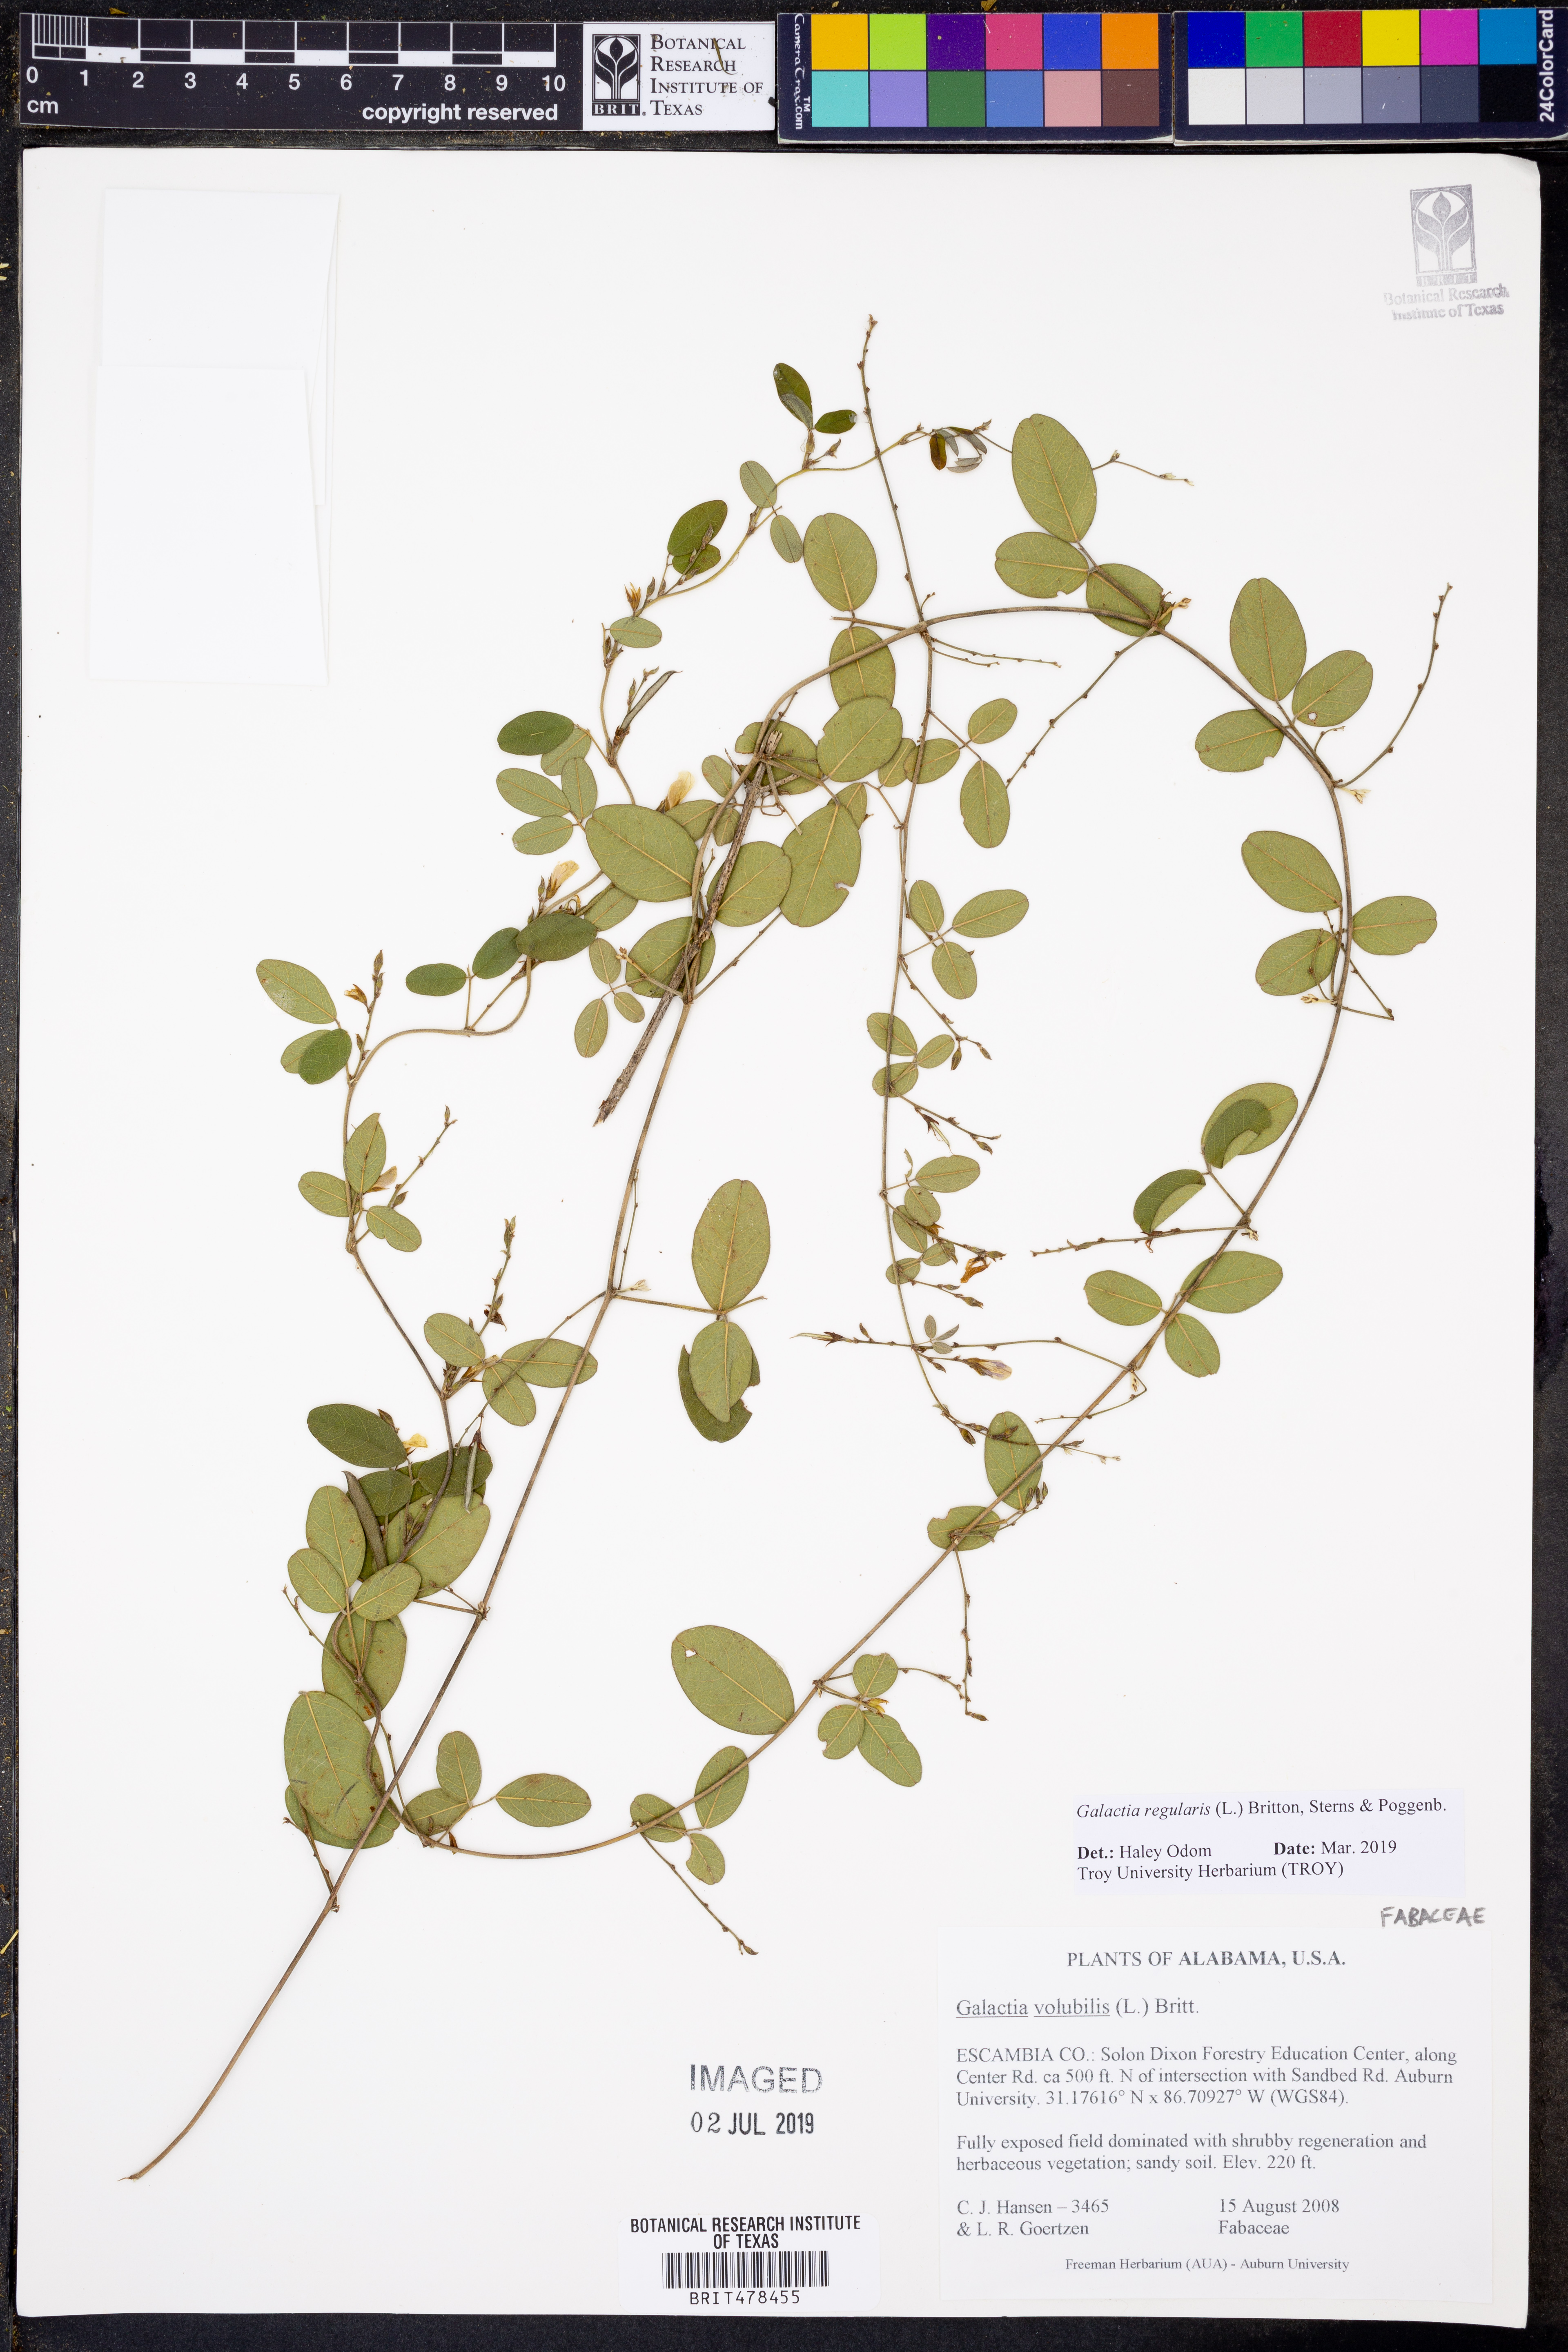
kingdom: Plantae
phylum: Tracheophyta
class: Magnoliopsida
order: Fabales
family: Fabaceae
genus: Galactia
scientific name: Galactia regularis
